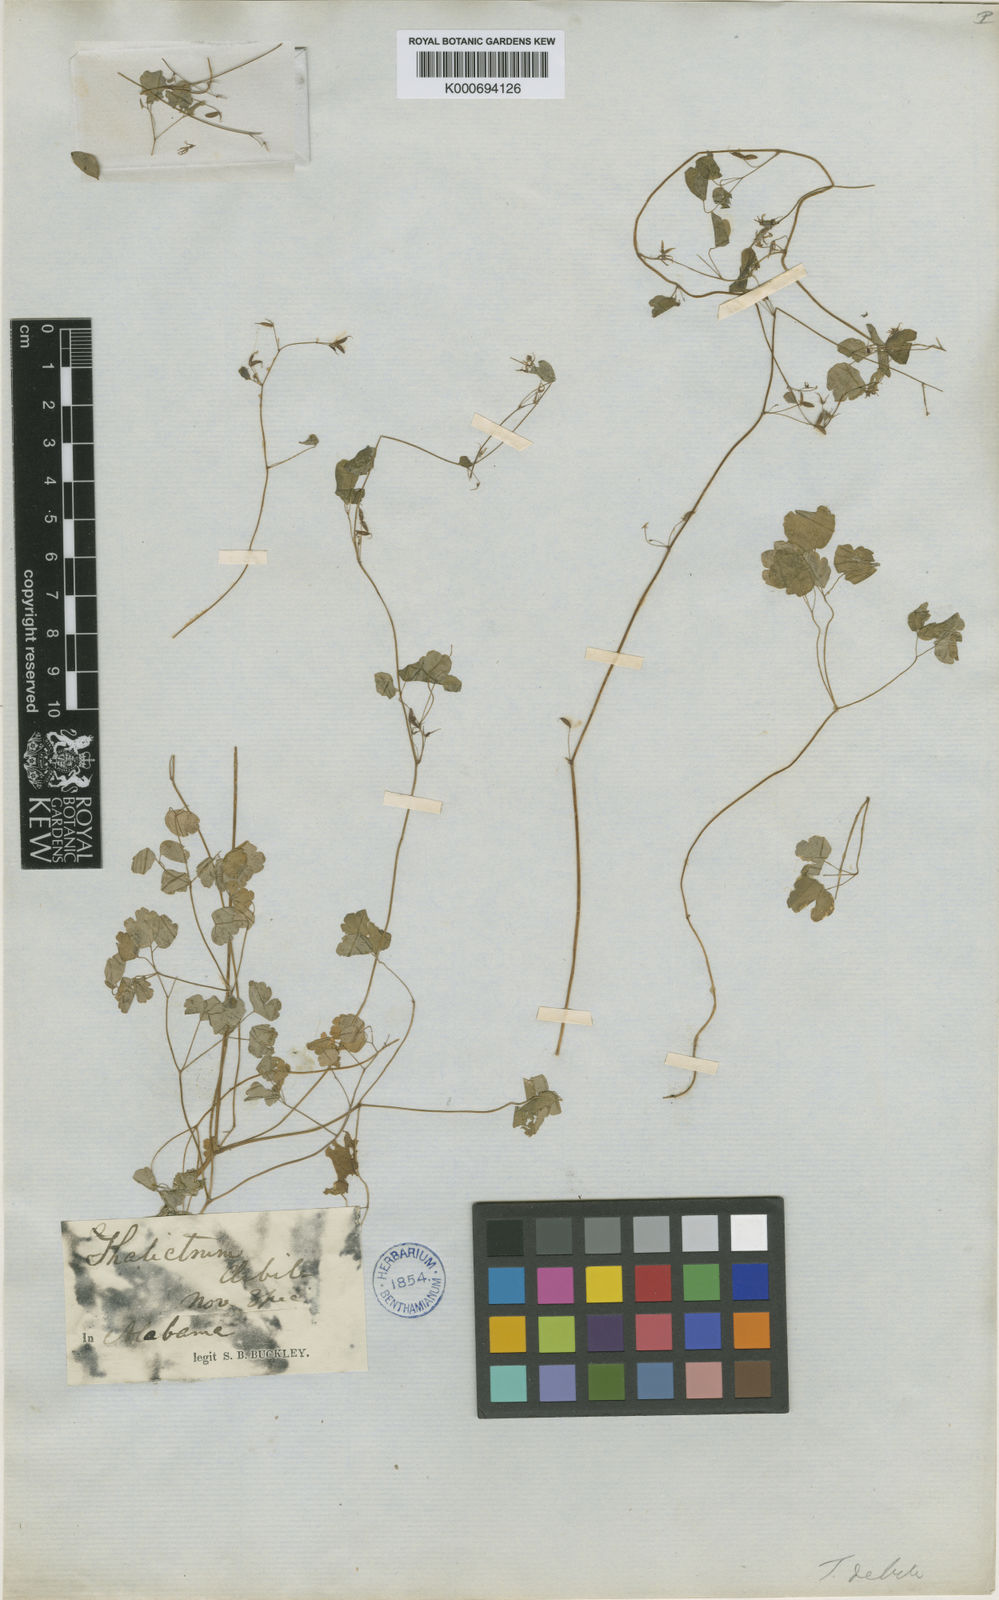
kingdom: Plantae
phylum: Tracheophyta
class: Magnoliopsida
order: Ranunculales
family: Ranunculaceae
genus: Thalictrum
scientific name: Thalictrum debile
